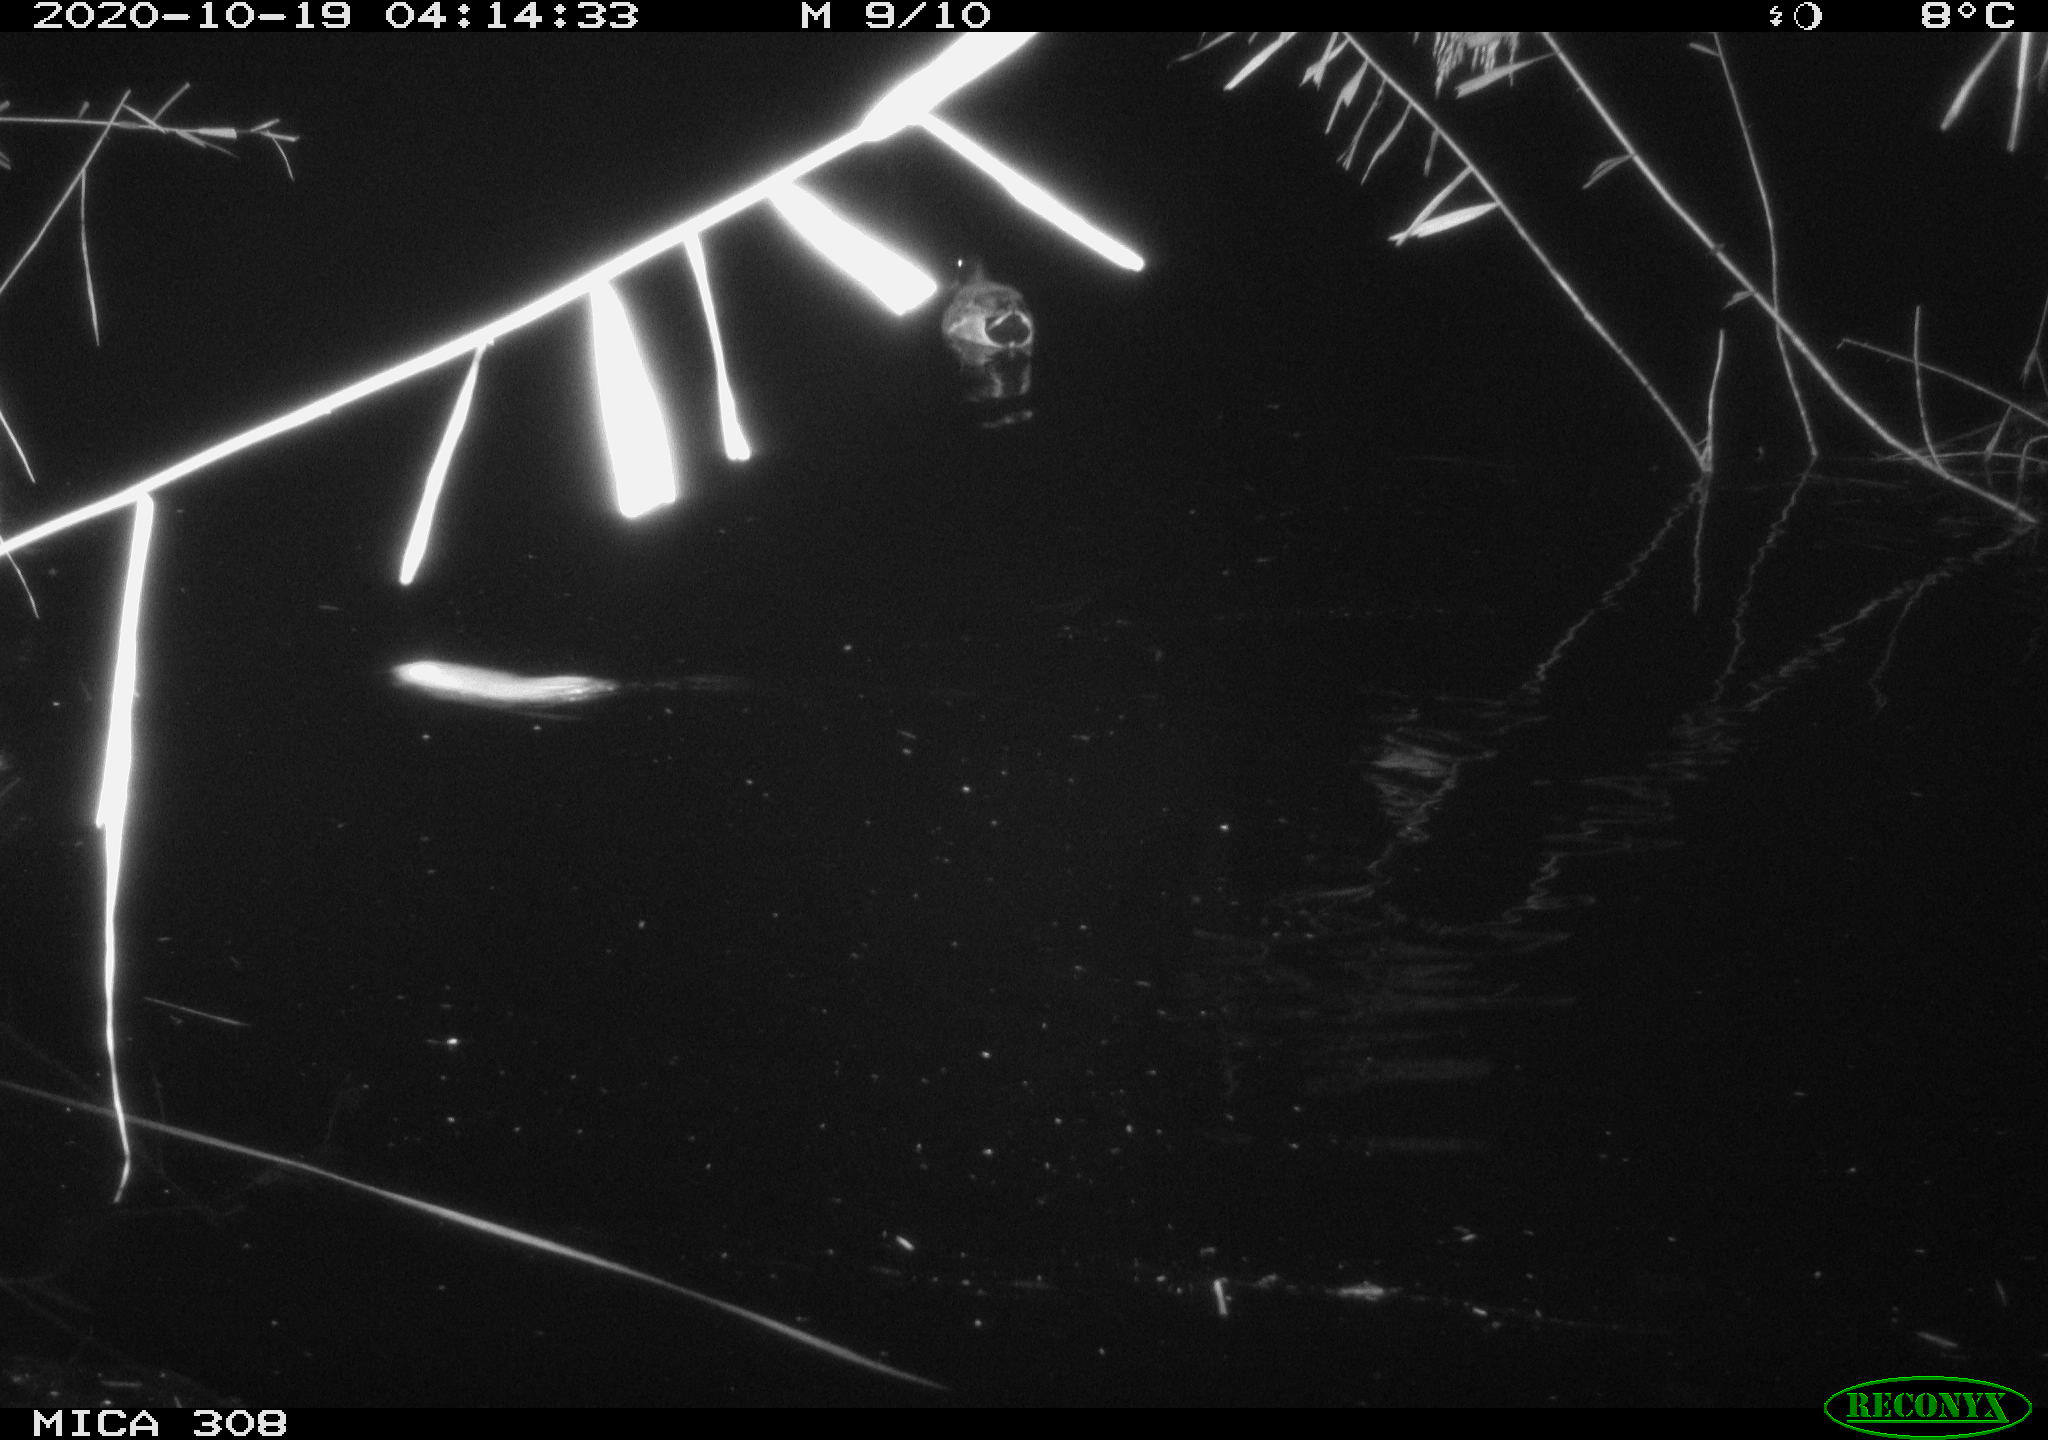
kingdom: Animalia
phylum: Chordata
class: Mammalia
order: Rodentia
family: Muridae
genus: Rattus
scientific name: Rattus norvegicus
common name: Brown rat
